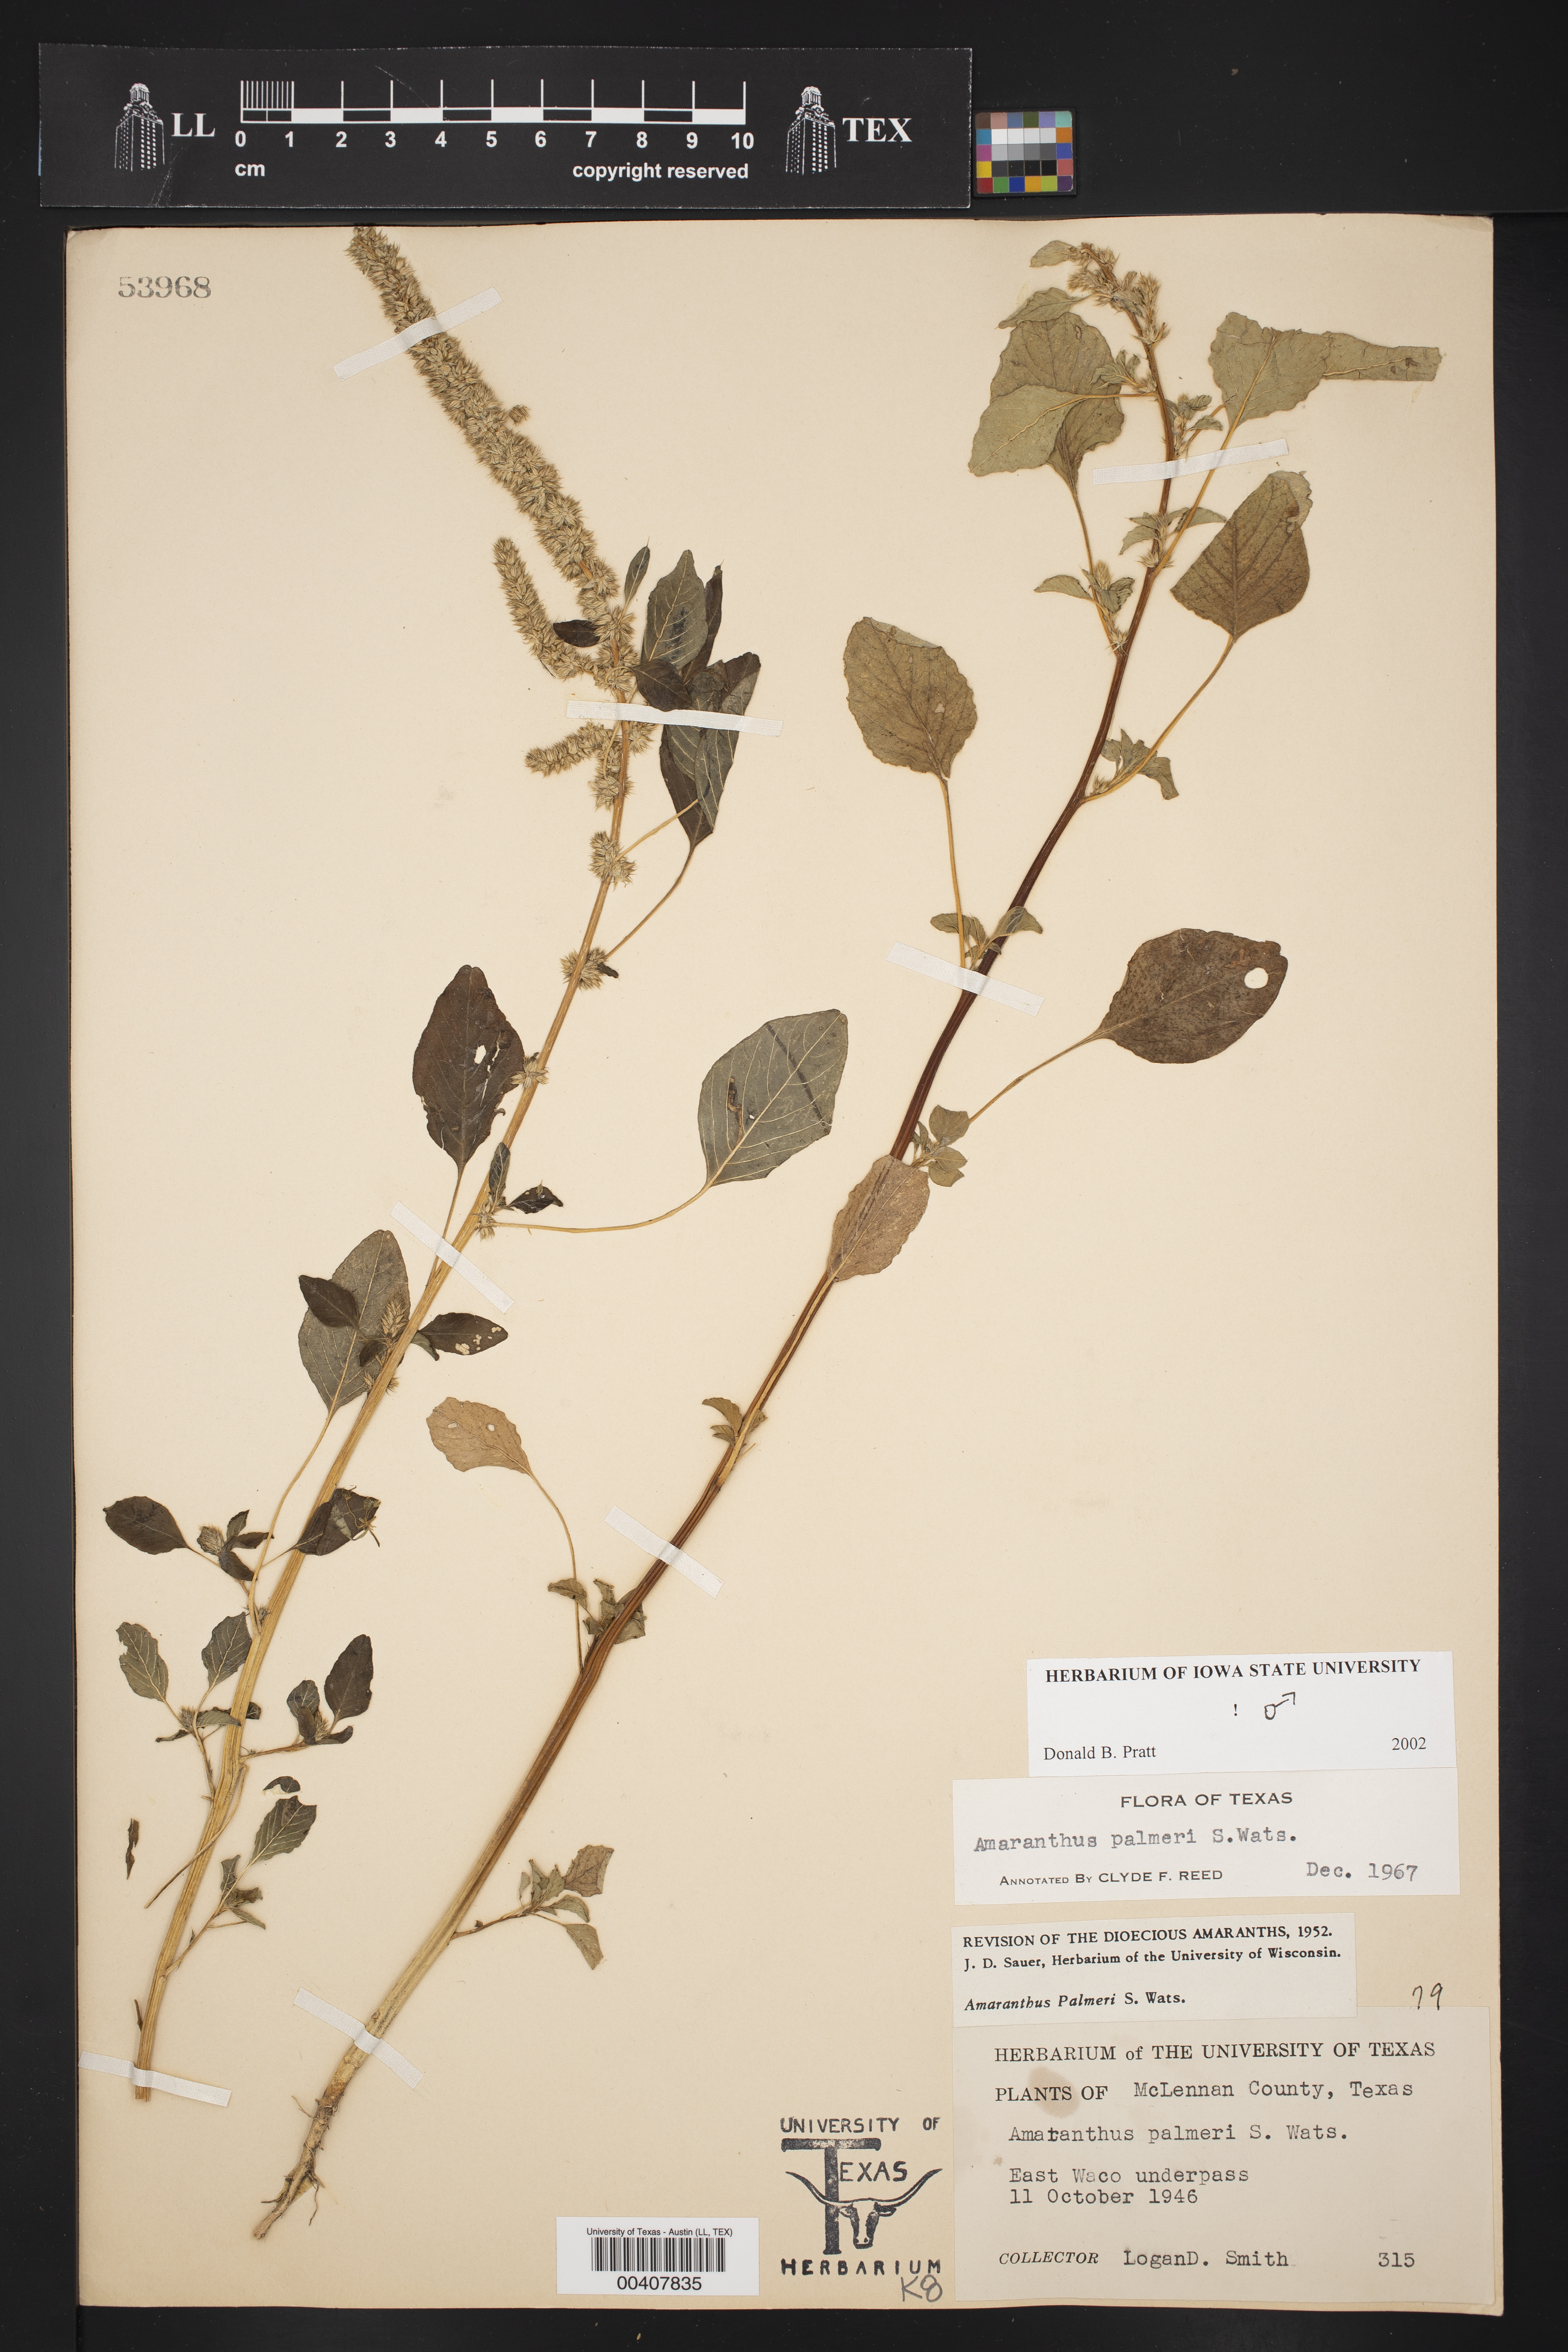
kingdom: Plantae
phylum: Tracheophyta
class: Magnoliopsida
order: Caryophyllales
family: Amaranthaceae
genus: Amaranthus
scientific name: Amaranthus palmeri
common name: Dioecious amaranth
